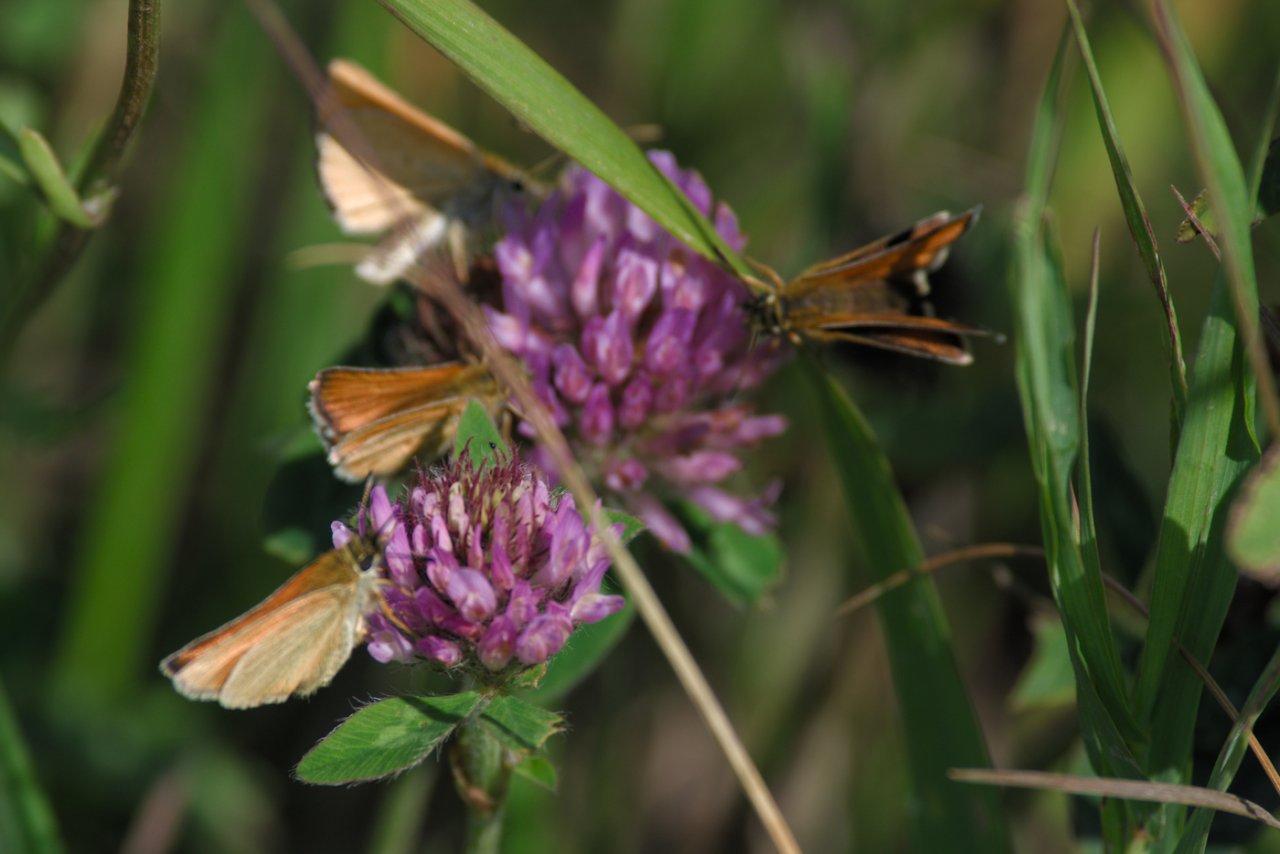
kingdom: Animalia
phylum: Arthropoda
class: Insecta
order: Lepidoptera
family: Hesperiidae
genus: Thymelicus
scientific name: Thymelicus lineola
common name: European Skipper
